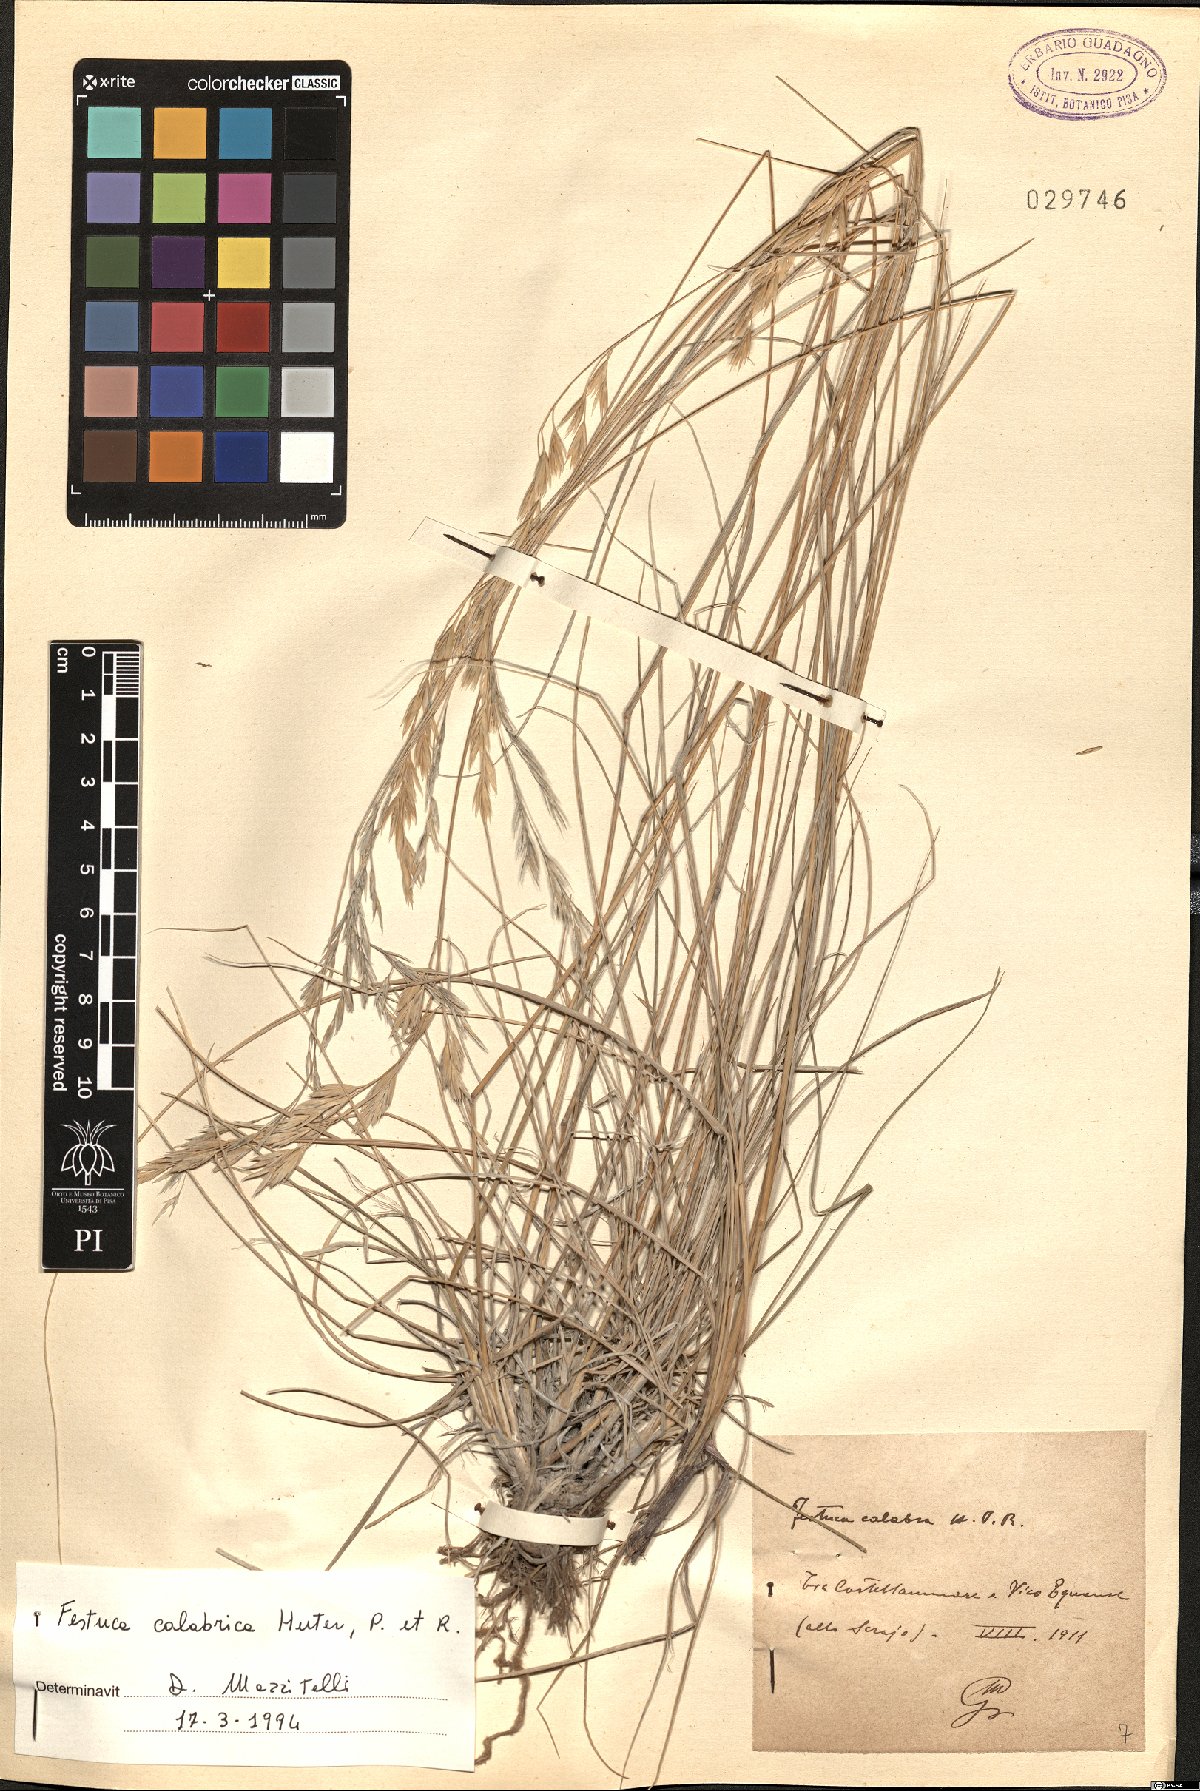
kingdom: Plantae
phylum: Tracheophyta
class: Liliopsida
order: Poales
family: Poaceae
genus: Festuca
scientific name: Festuca calabrica
